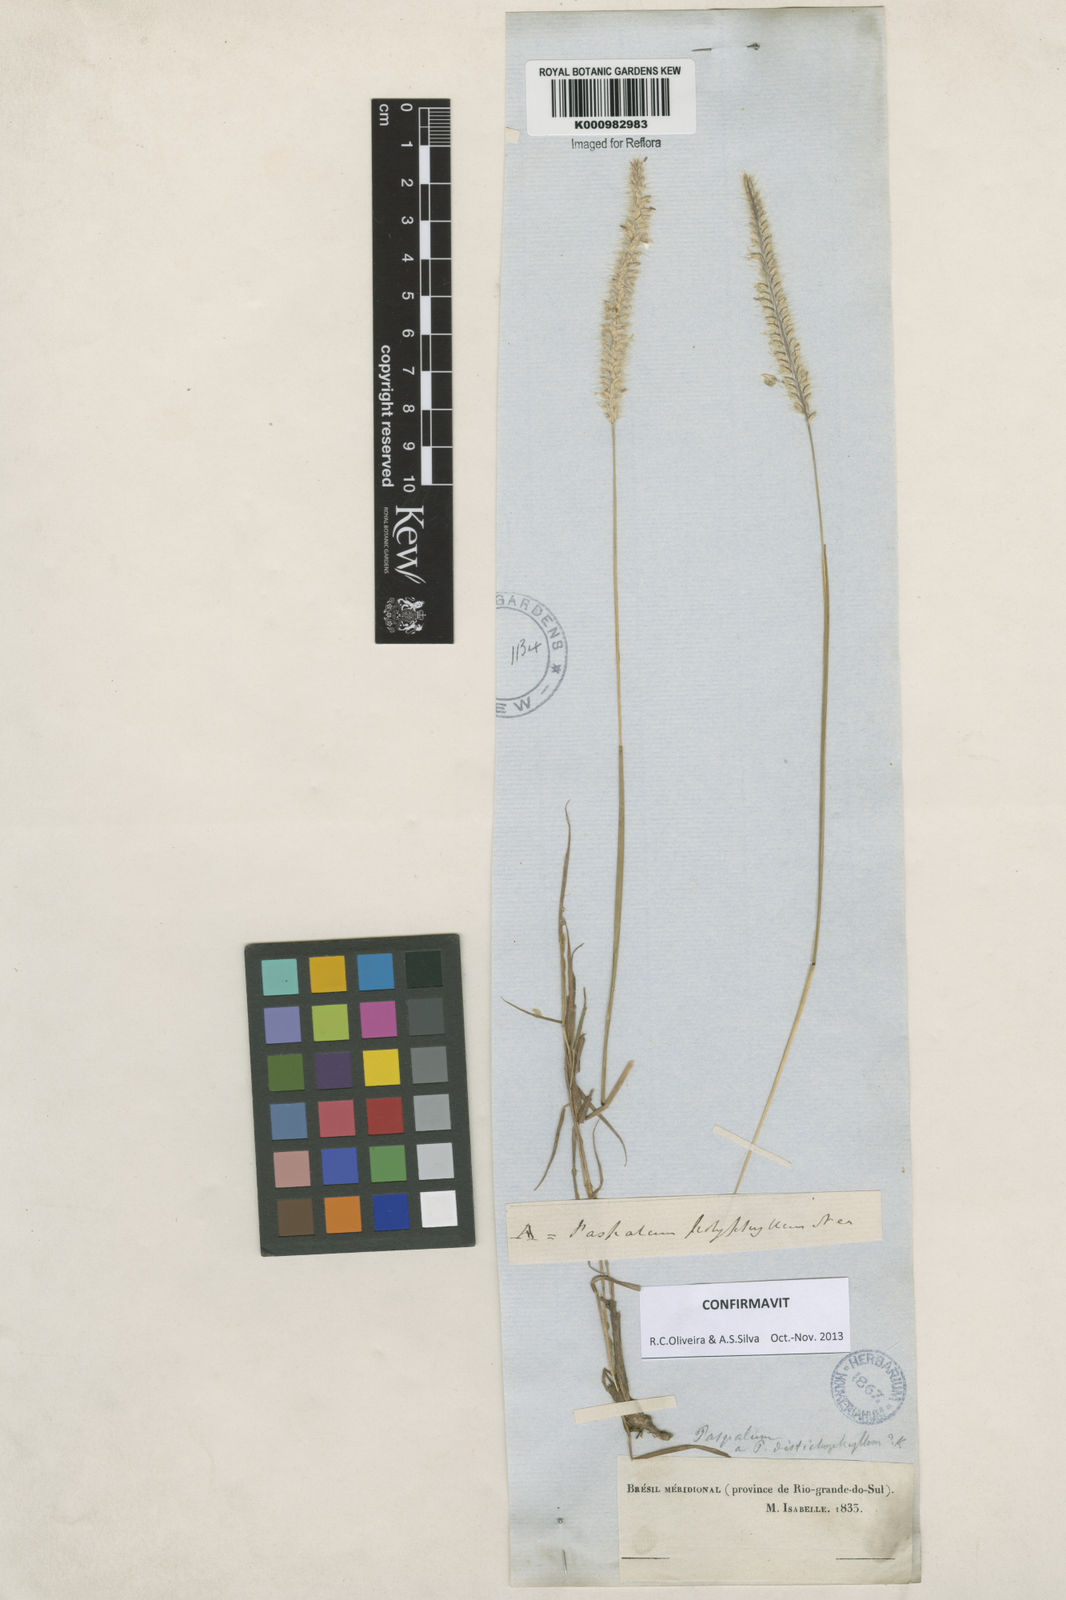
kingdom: Plantae
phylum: Tracheophyta
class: Liliopsida
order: Poales
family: Poaceae
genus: Paspalum
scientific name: Paspalum
